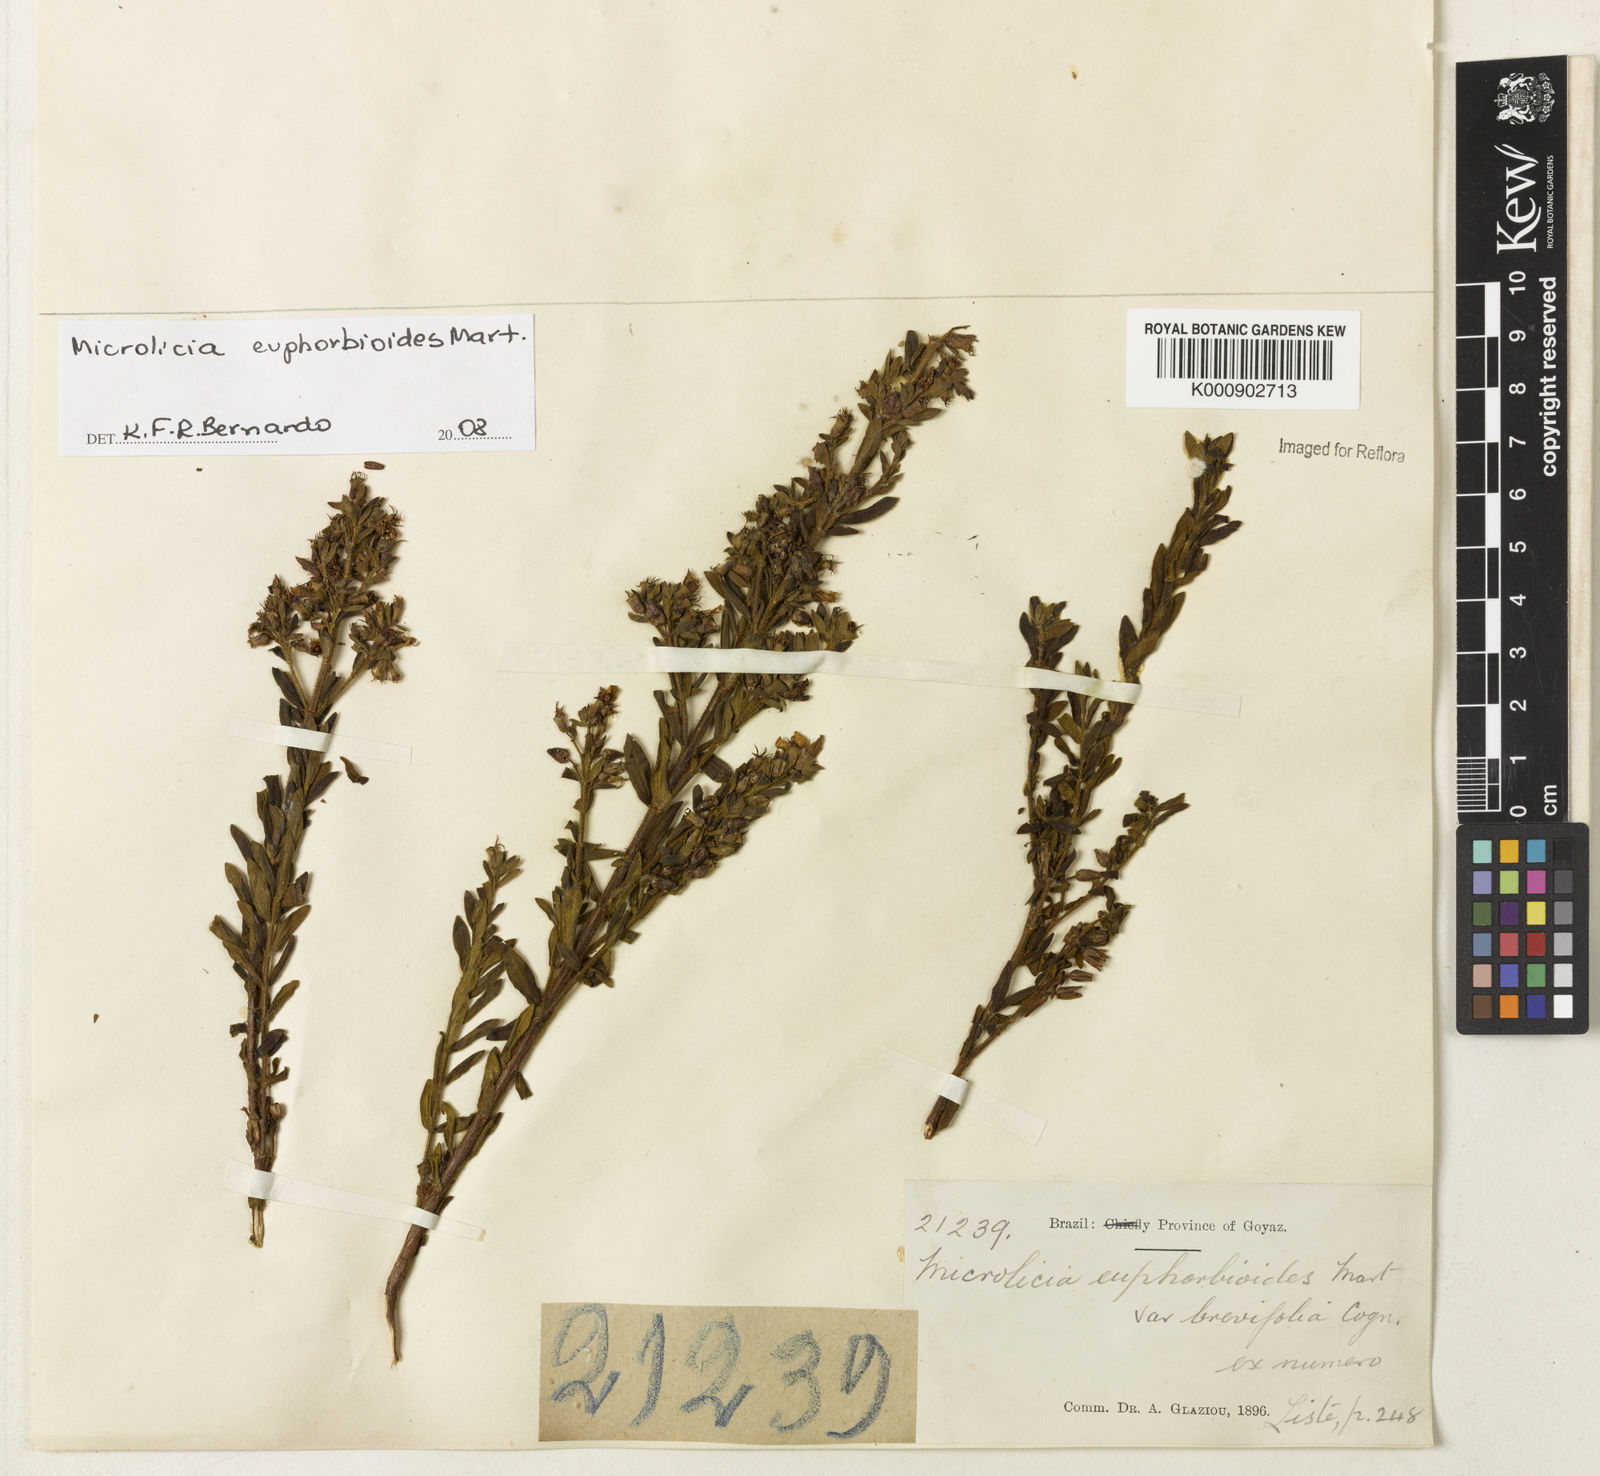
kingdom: Plantae
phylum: Tracheophyta
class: Magnoliopsida
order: Myrtales
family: Melastomataceae
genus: Microlicia
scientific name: Microlicia euphorbioides
